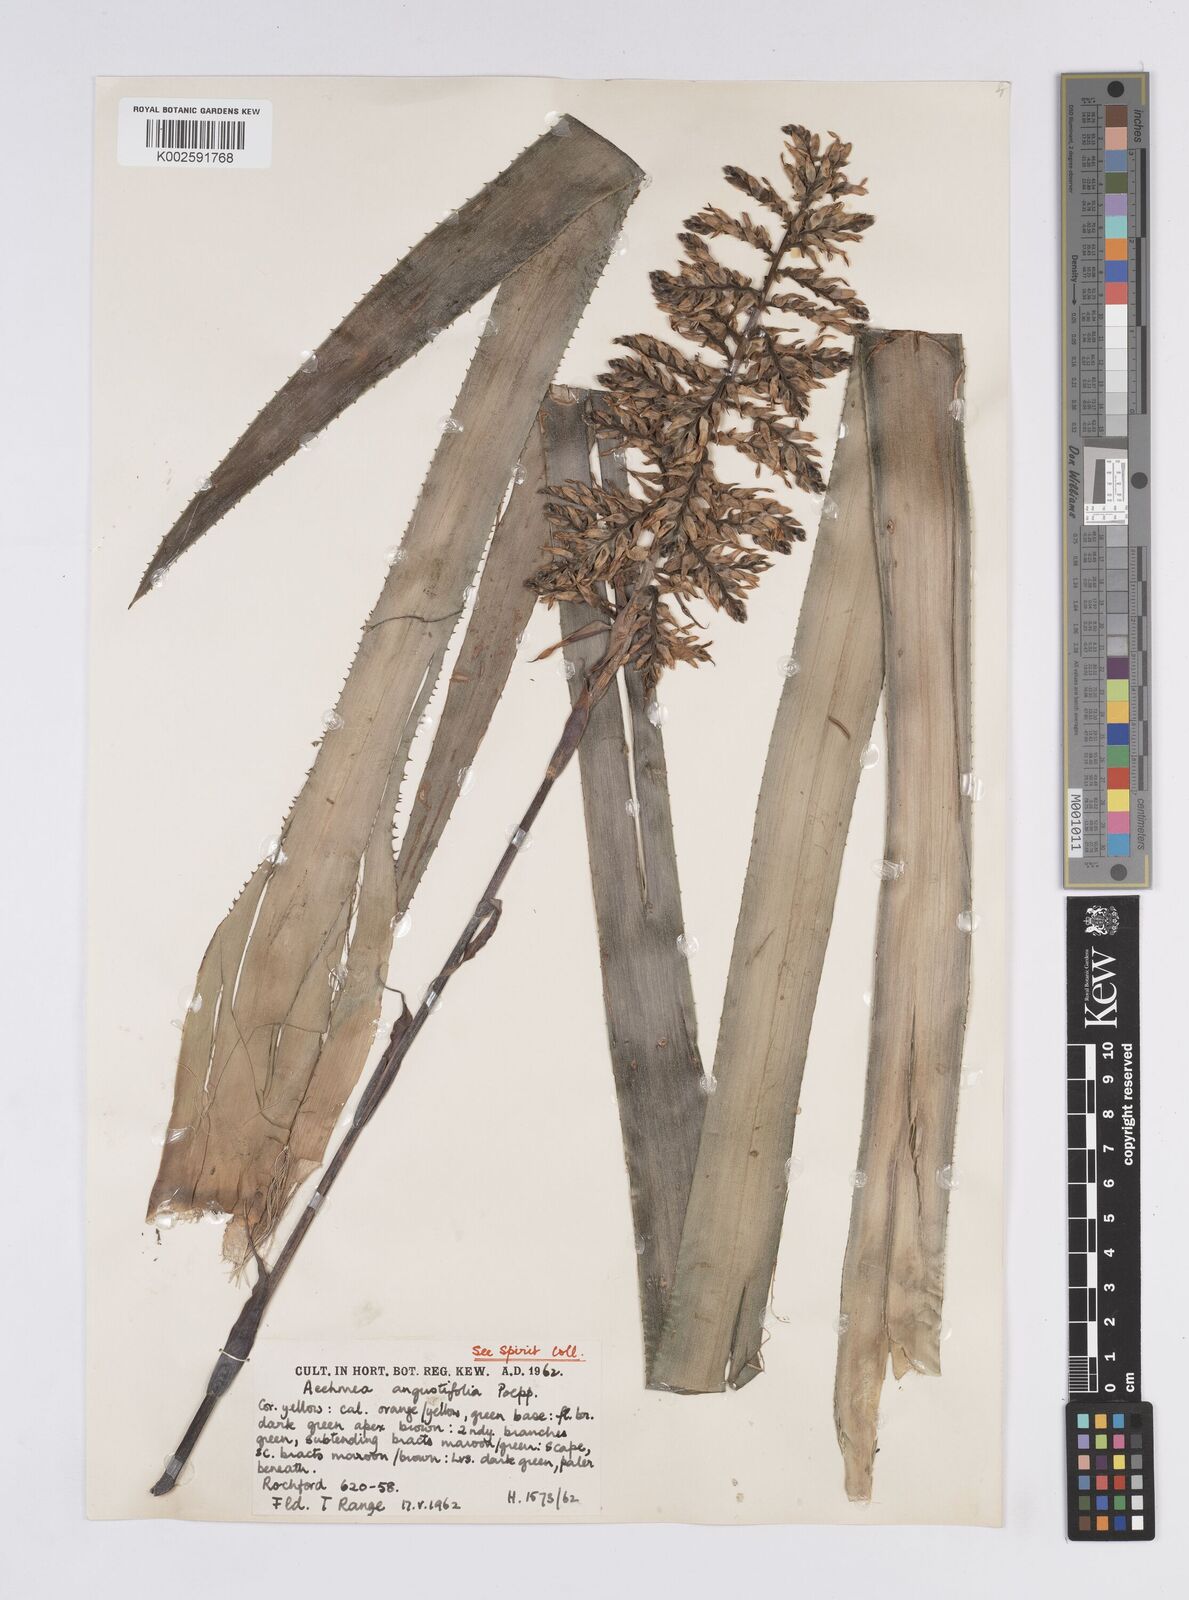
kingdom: Plantae
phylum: Tracheophyta
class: Liliopsida
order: Poales
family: Bromeliaceae
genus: Aechmea
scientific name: Aechmea angustifolia
